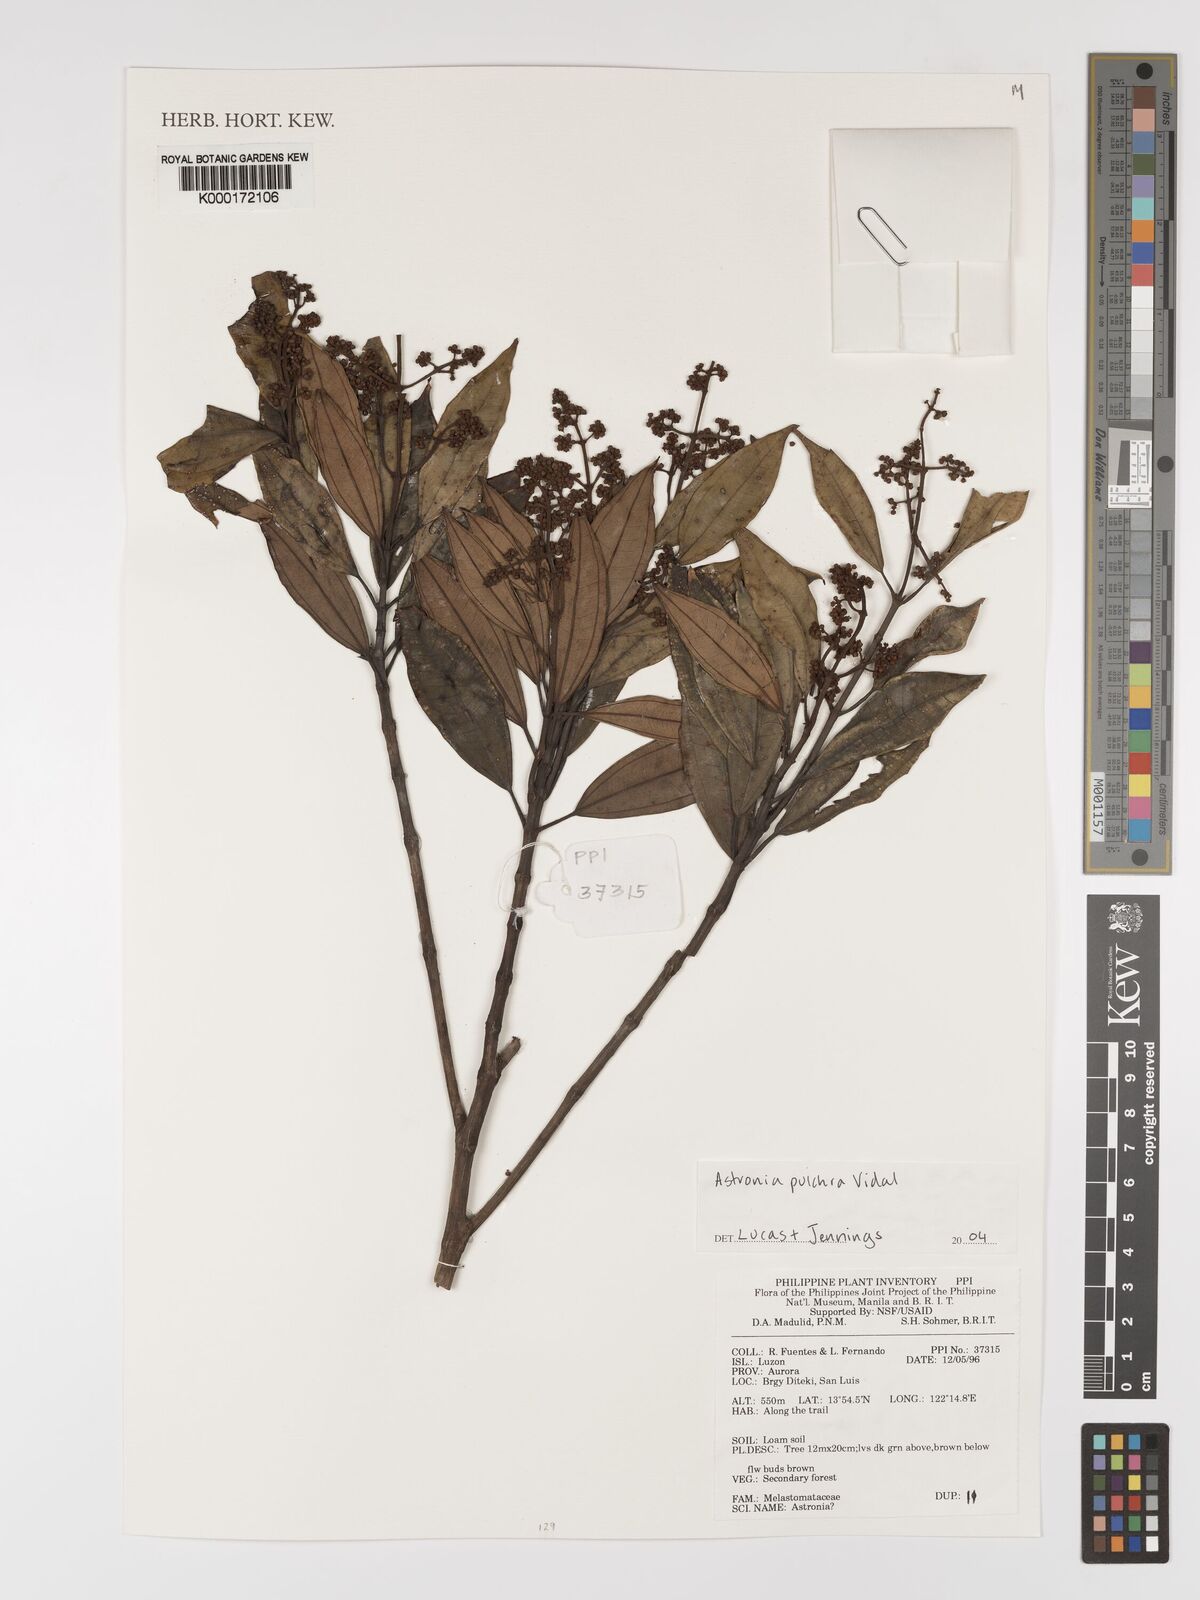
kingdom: Plantae
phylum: Tracheophyta
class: Magnoliopsida
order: Myrtales
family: Melastomataceae
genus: Astronia
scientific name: Astronia pulchra
